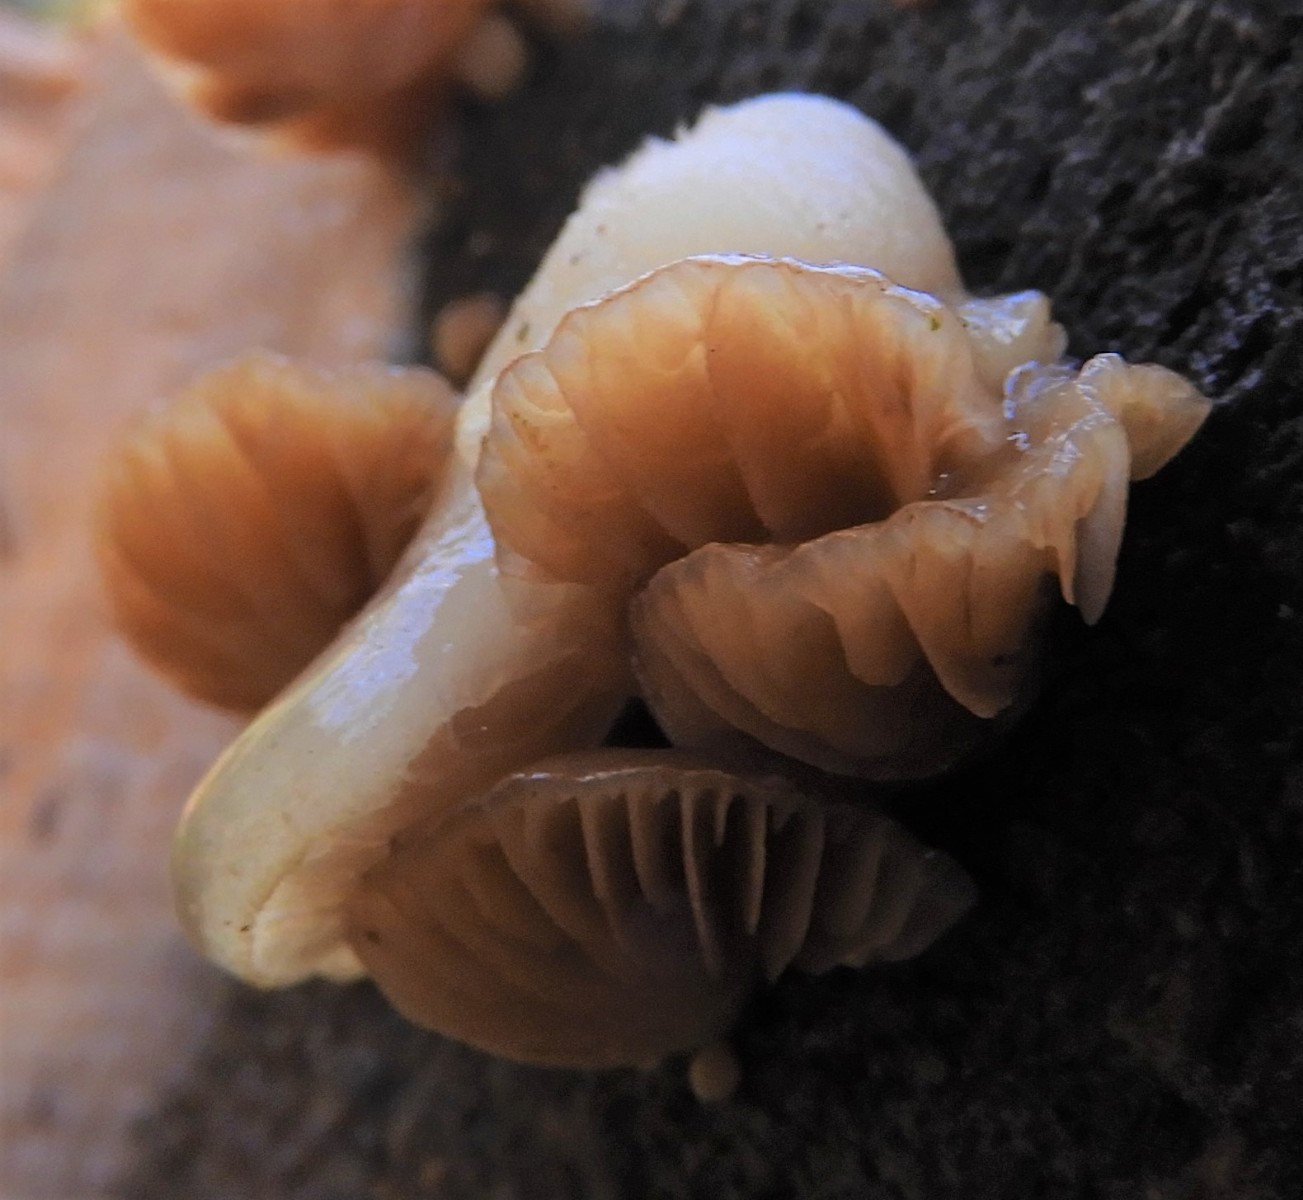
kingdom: Fungi
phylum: Basidiomycota
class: Agaricomycetes
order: Agaricales
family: Crepidotaceae
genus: Crepidotus
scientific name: Crepidotus mollis
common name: blød muslingesvamp
